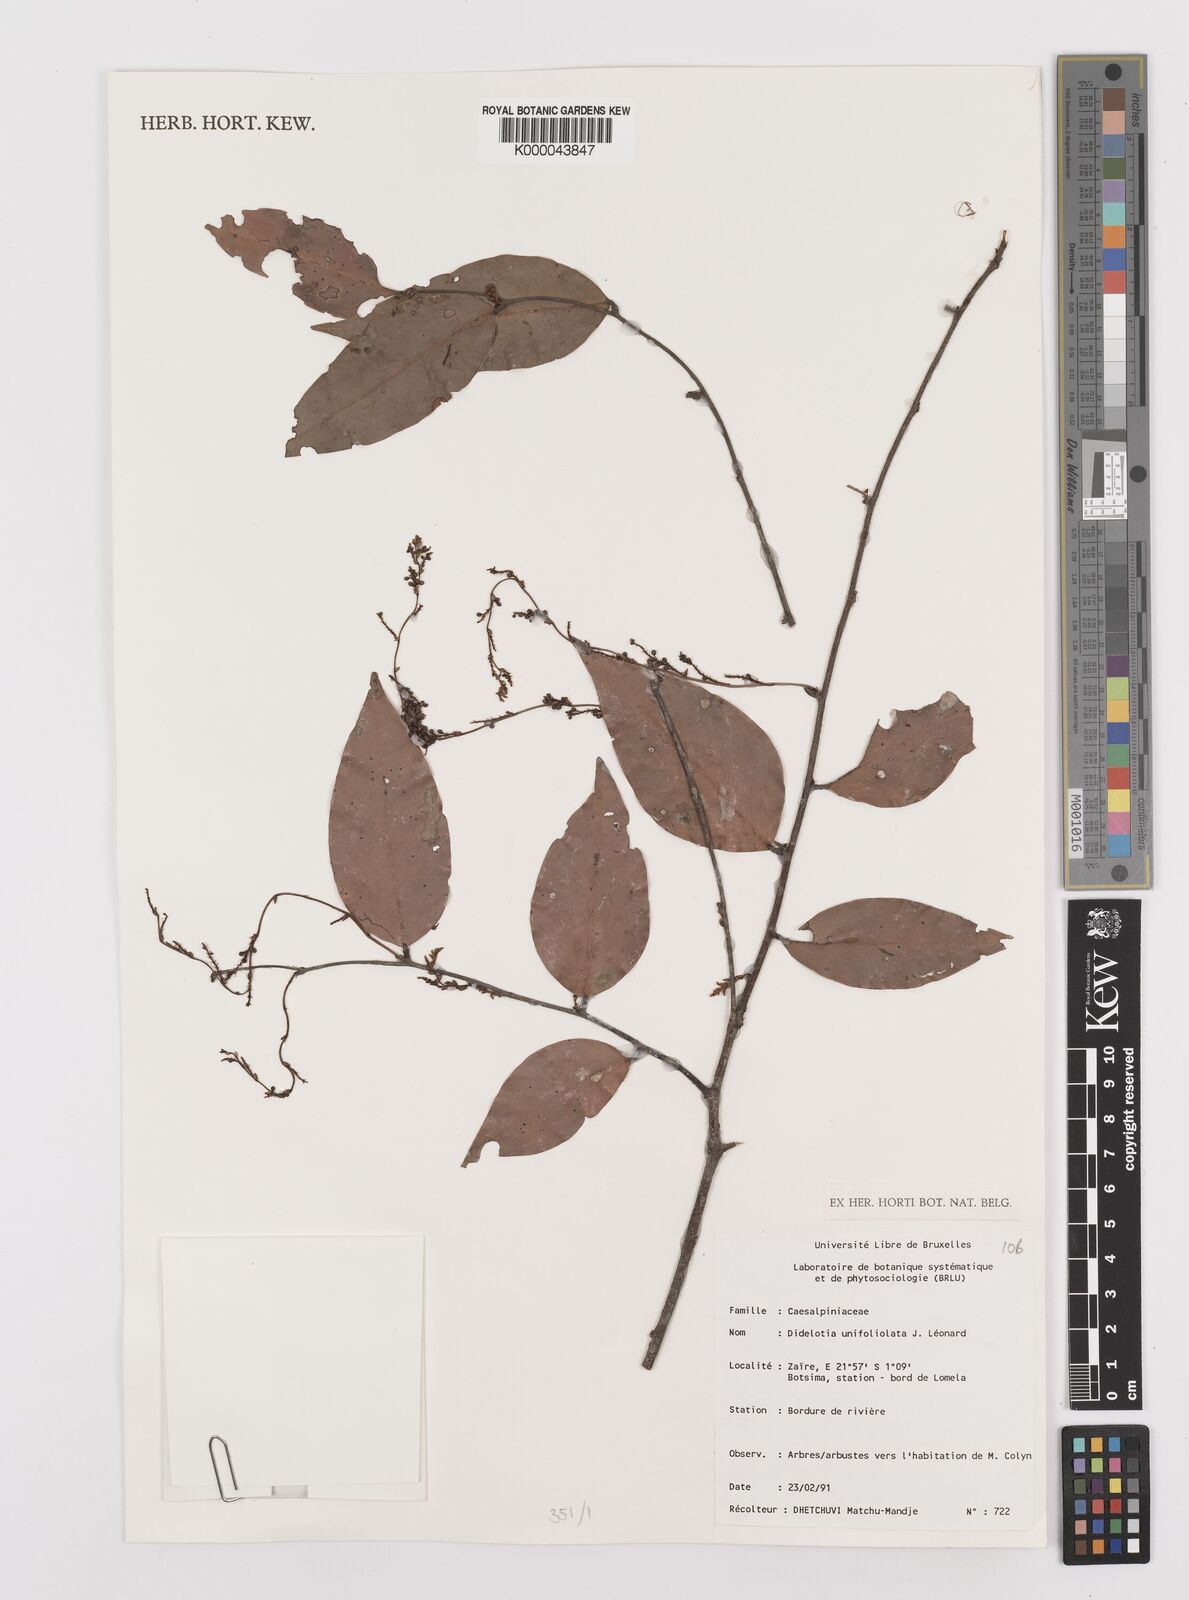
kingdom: Plantae
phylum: Tracheophyta
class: Magnoliopsida
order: Fabales
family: Fabaceae
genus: Didelotia
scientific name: Didelotia
